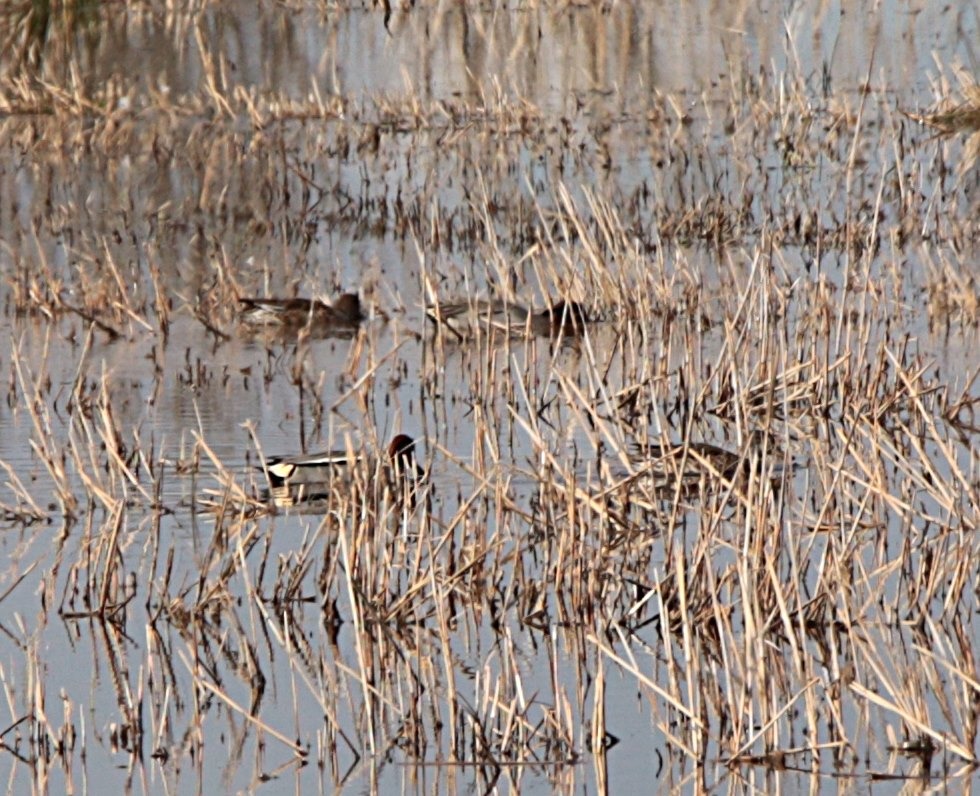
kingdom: Animalia
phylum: Chordata
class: Aves
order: Anseriformes
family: Anatidae
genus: Anas
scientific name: Anas crecca
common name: Krikand
